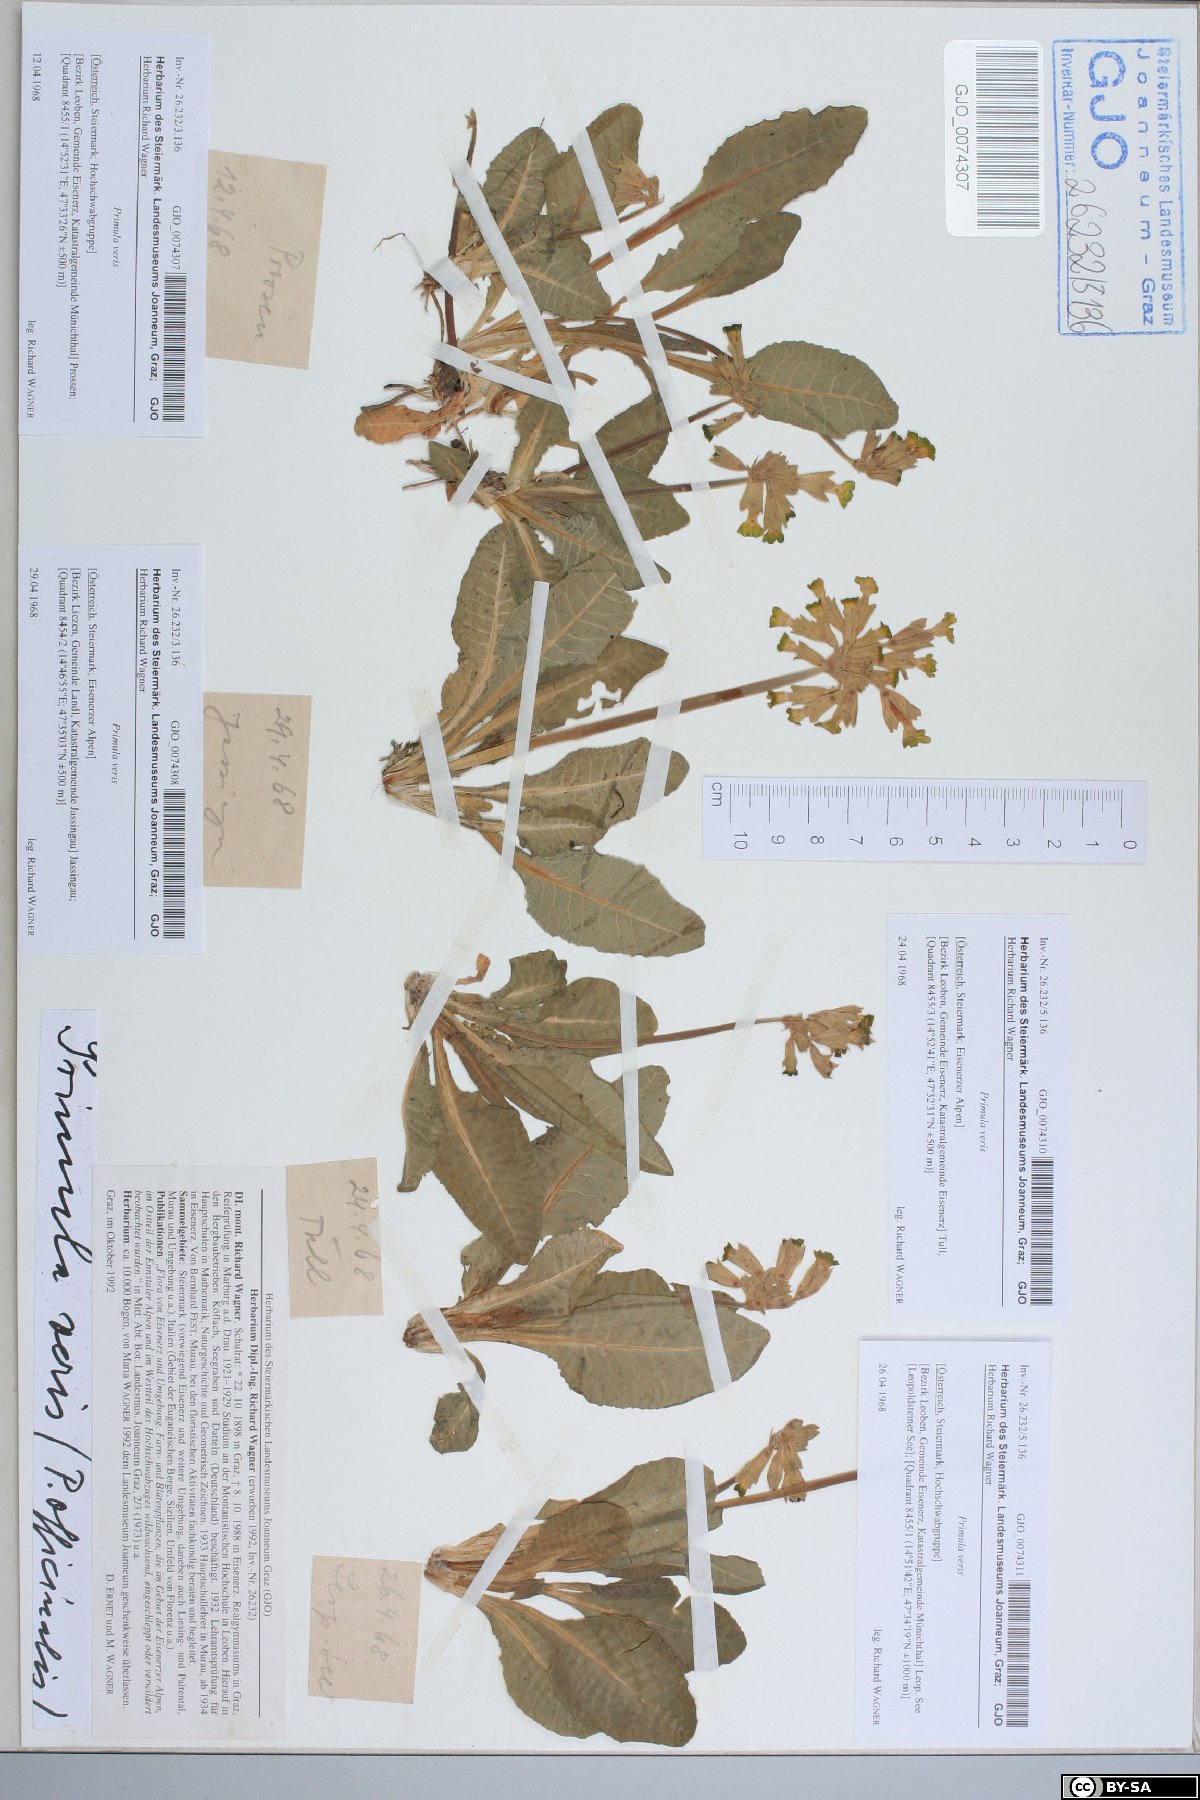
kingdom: Plantae
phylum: Tracheophyta
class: Magnoliopsida
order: Ericales
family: Primulaceae
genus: Primula
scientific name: Primula veris
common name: Cowslip
